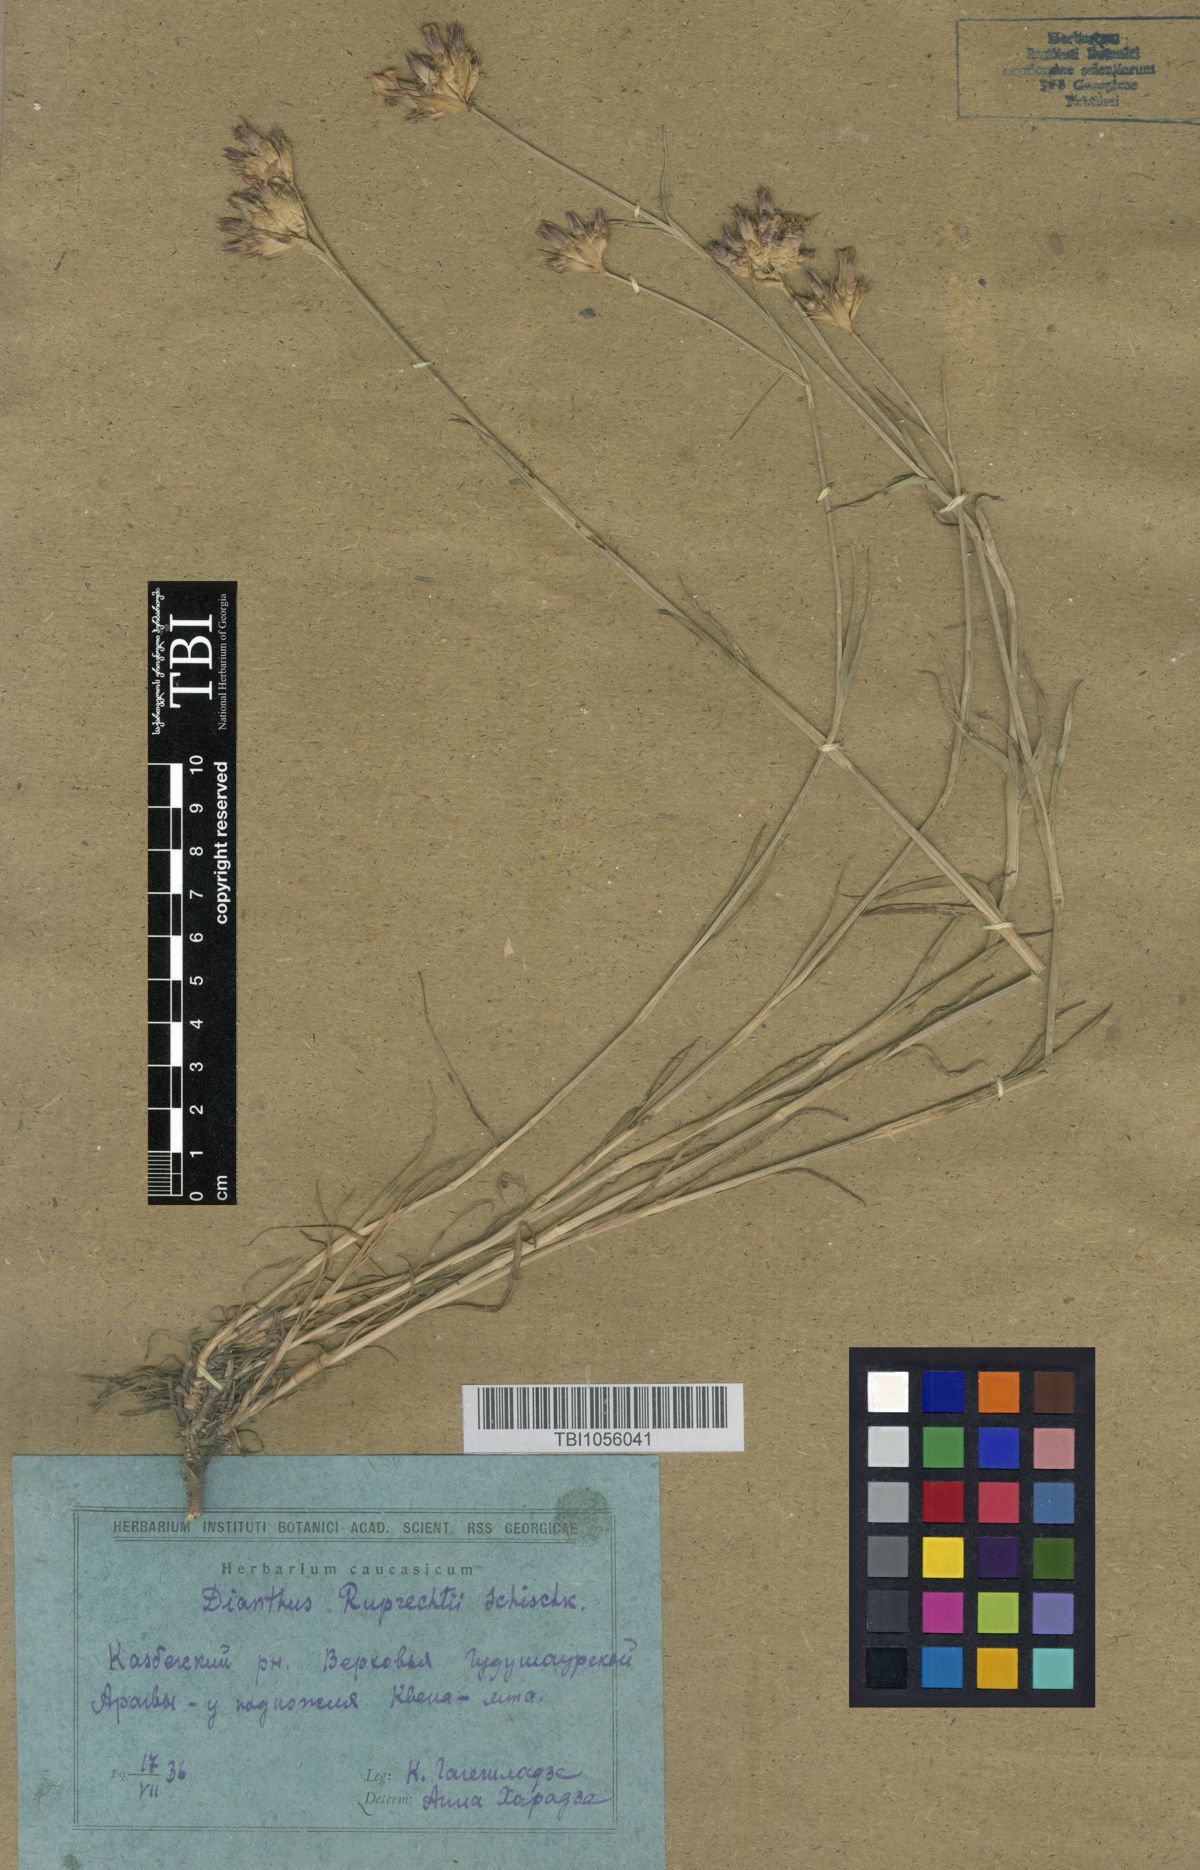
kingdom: Plantae
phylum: Tracheophyta
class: Magnoliopsida
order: Caryophyllales
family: Caryophyllaceae
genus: Dianthus
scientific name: Dianthus ruprechtii
